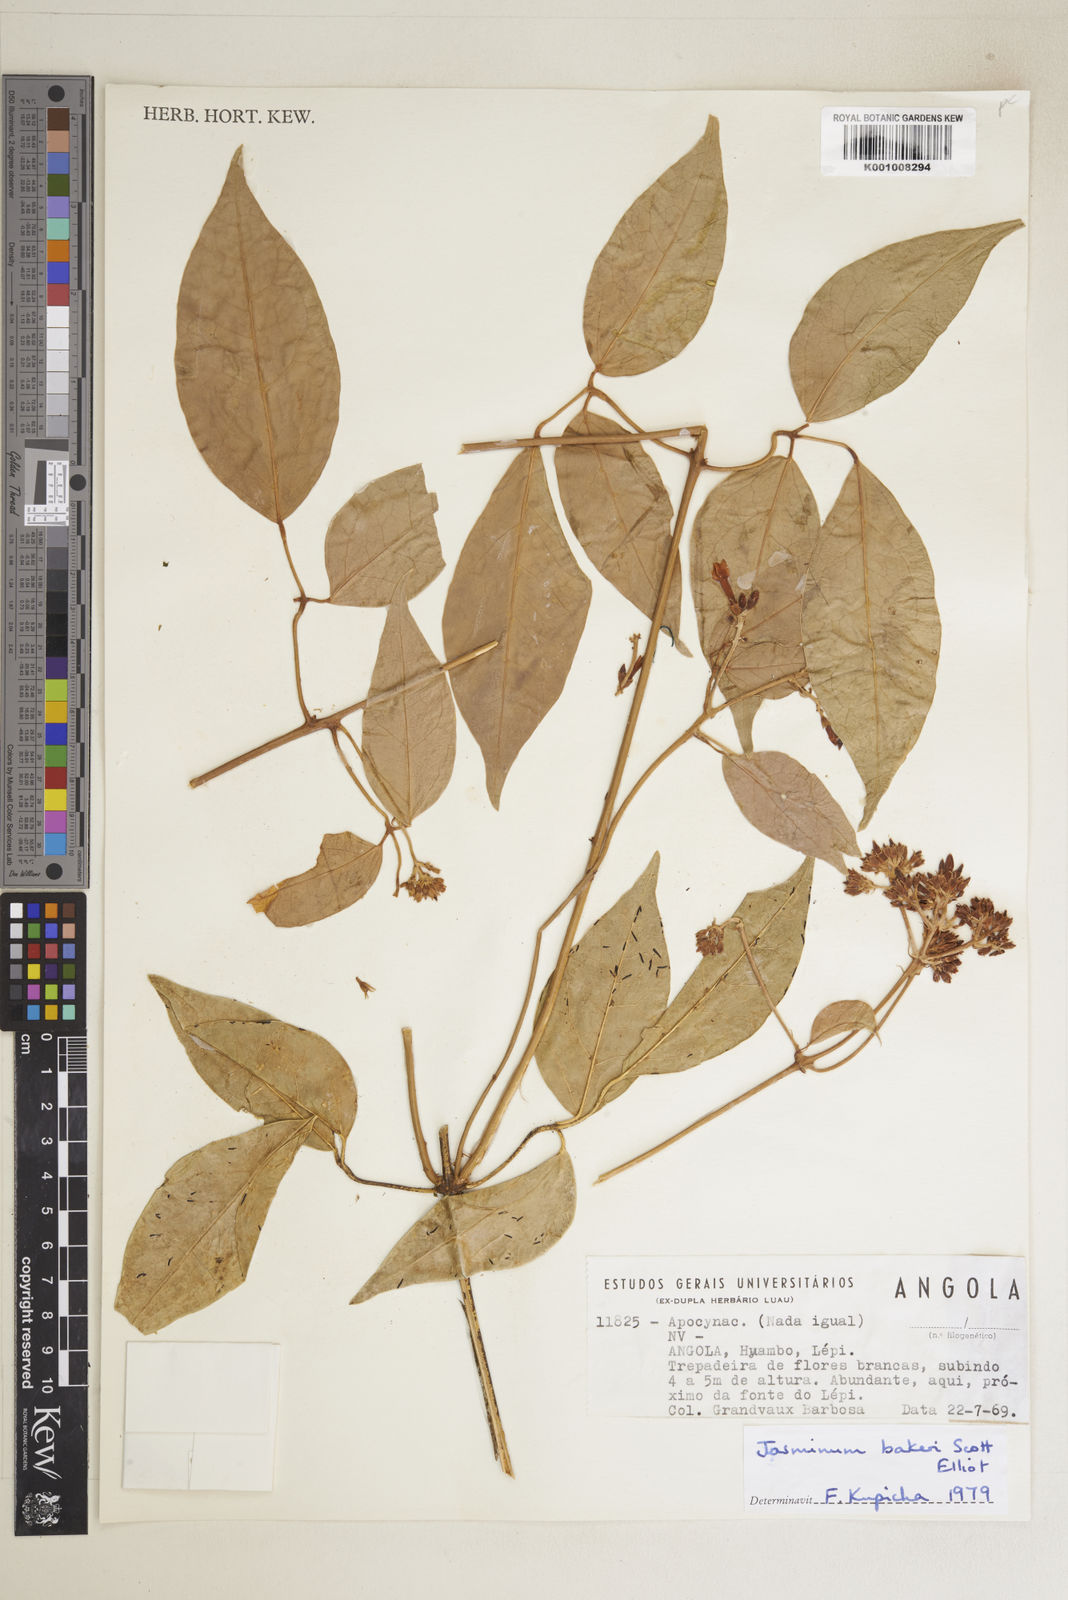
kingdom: Plantae
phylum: Tracheophyta
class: Magnoliopsida
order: Lamiales
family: Oleaceae
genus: Jasminum
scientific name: Jasminum bakeri
